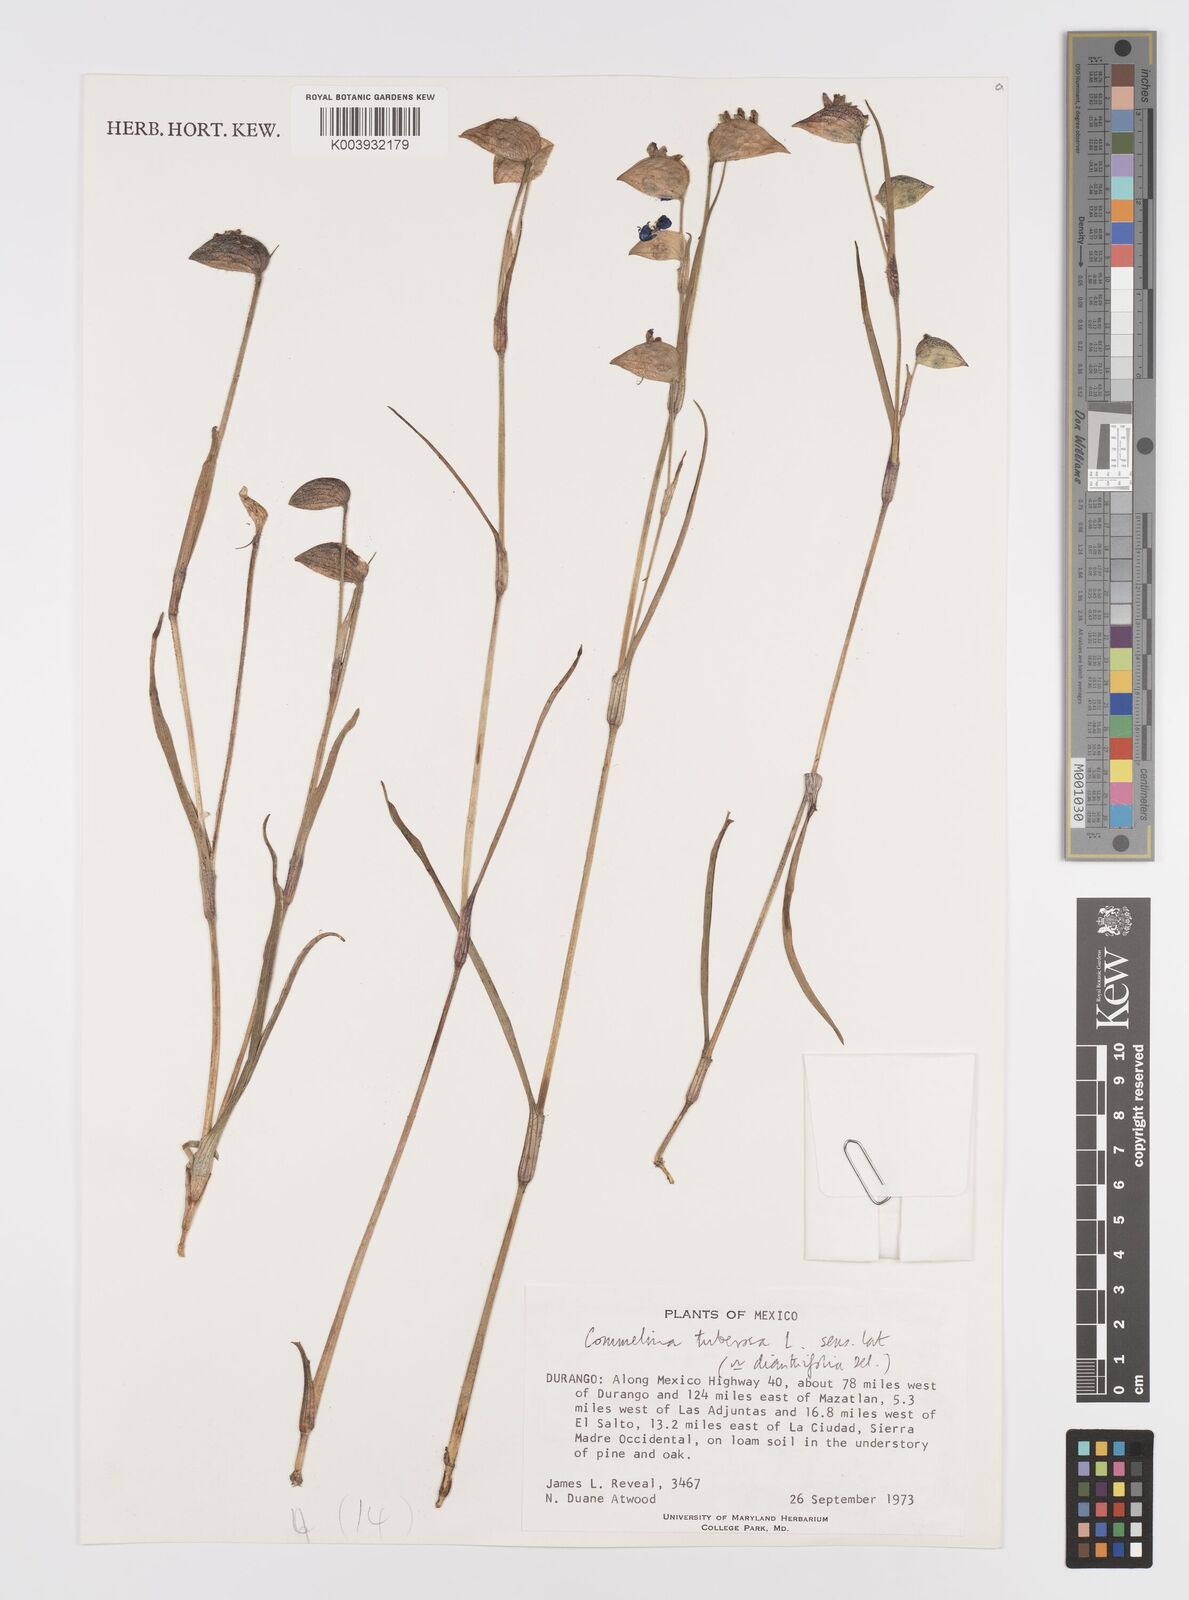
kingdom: Plantae
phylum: Tracheophyta
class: Liliopsida
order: Commelinales
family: Commelinaceae
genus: Commelina
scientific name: Commelina dianthifolia
